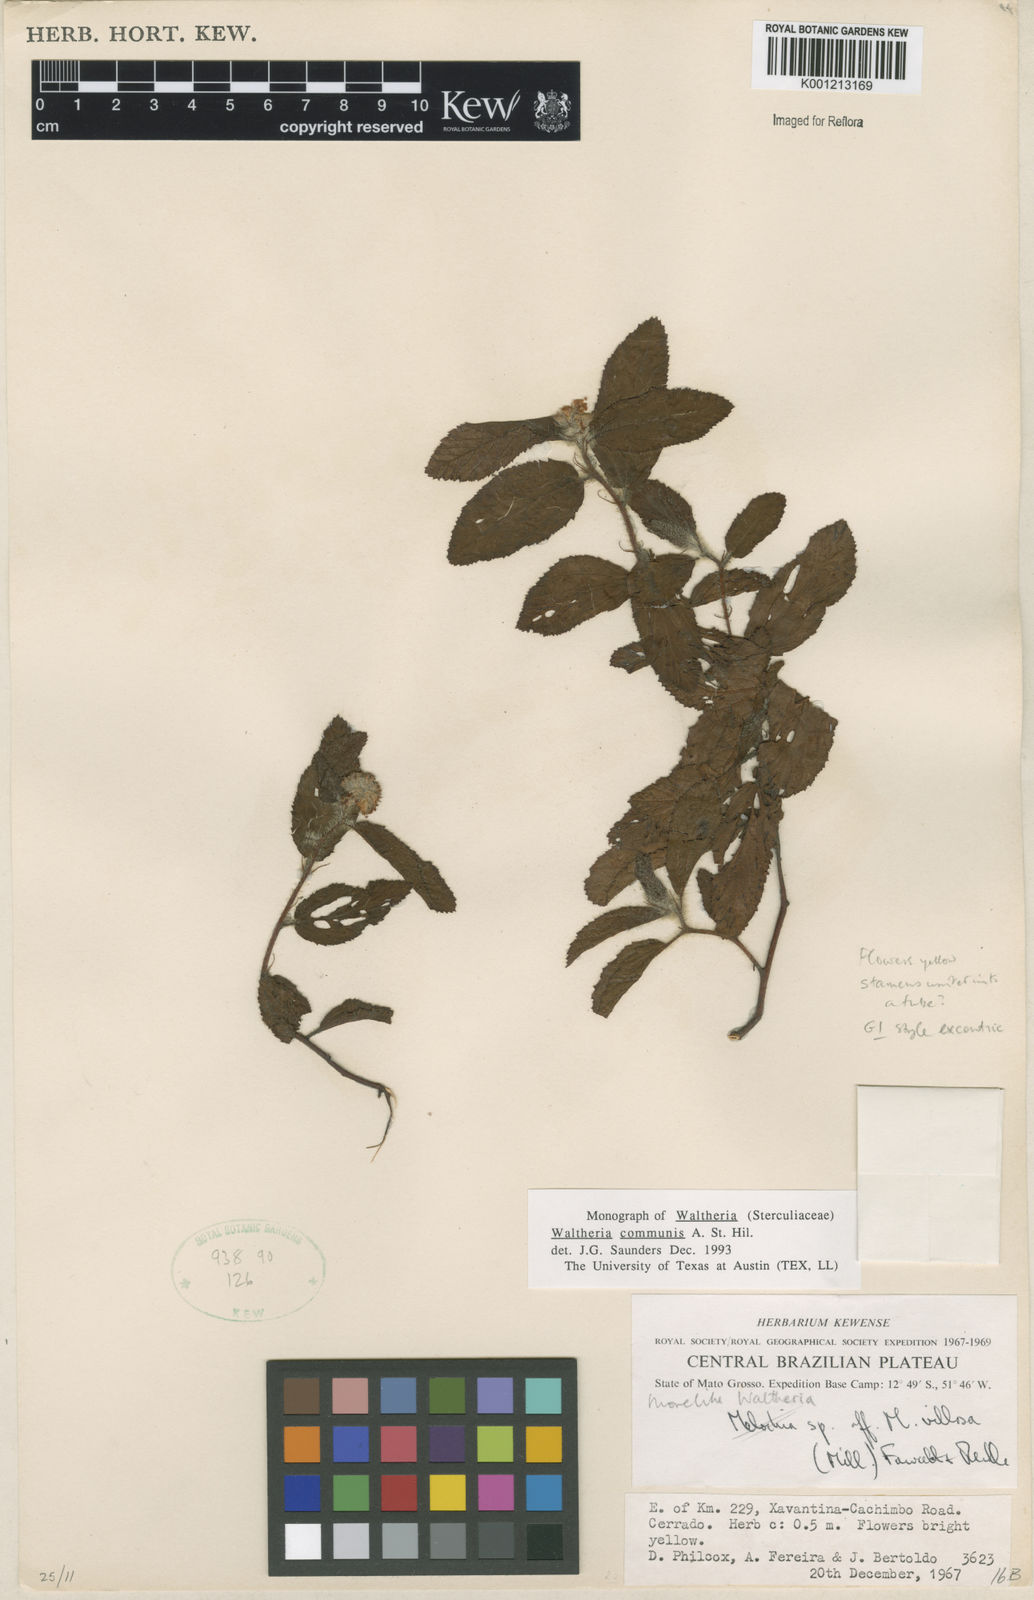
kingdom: Plantae
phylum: Tracheophyta
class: Magnoliopsida
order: Malvales
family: Malvaceae
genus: Waltheria
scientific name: Waltheria communis
